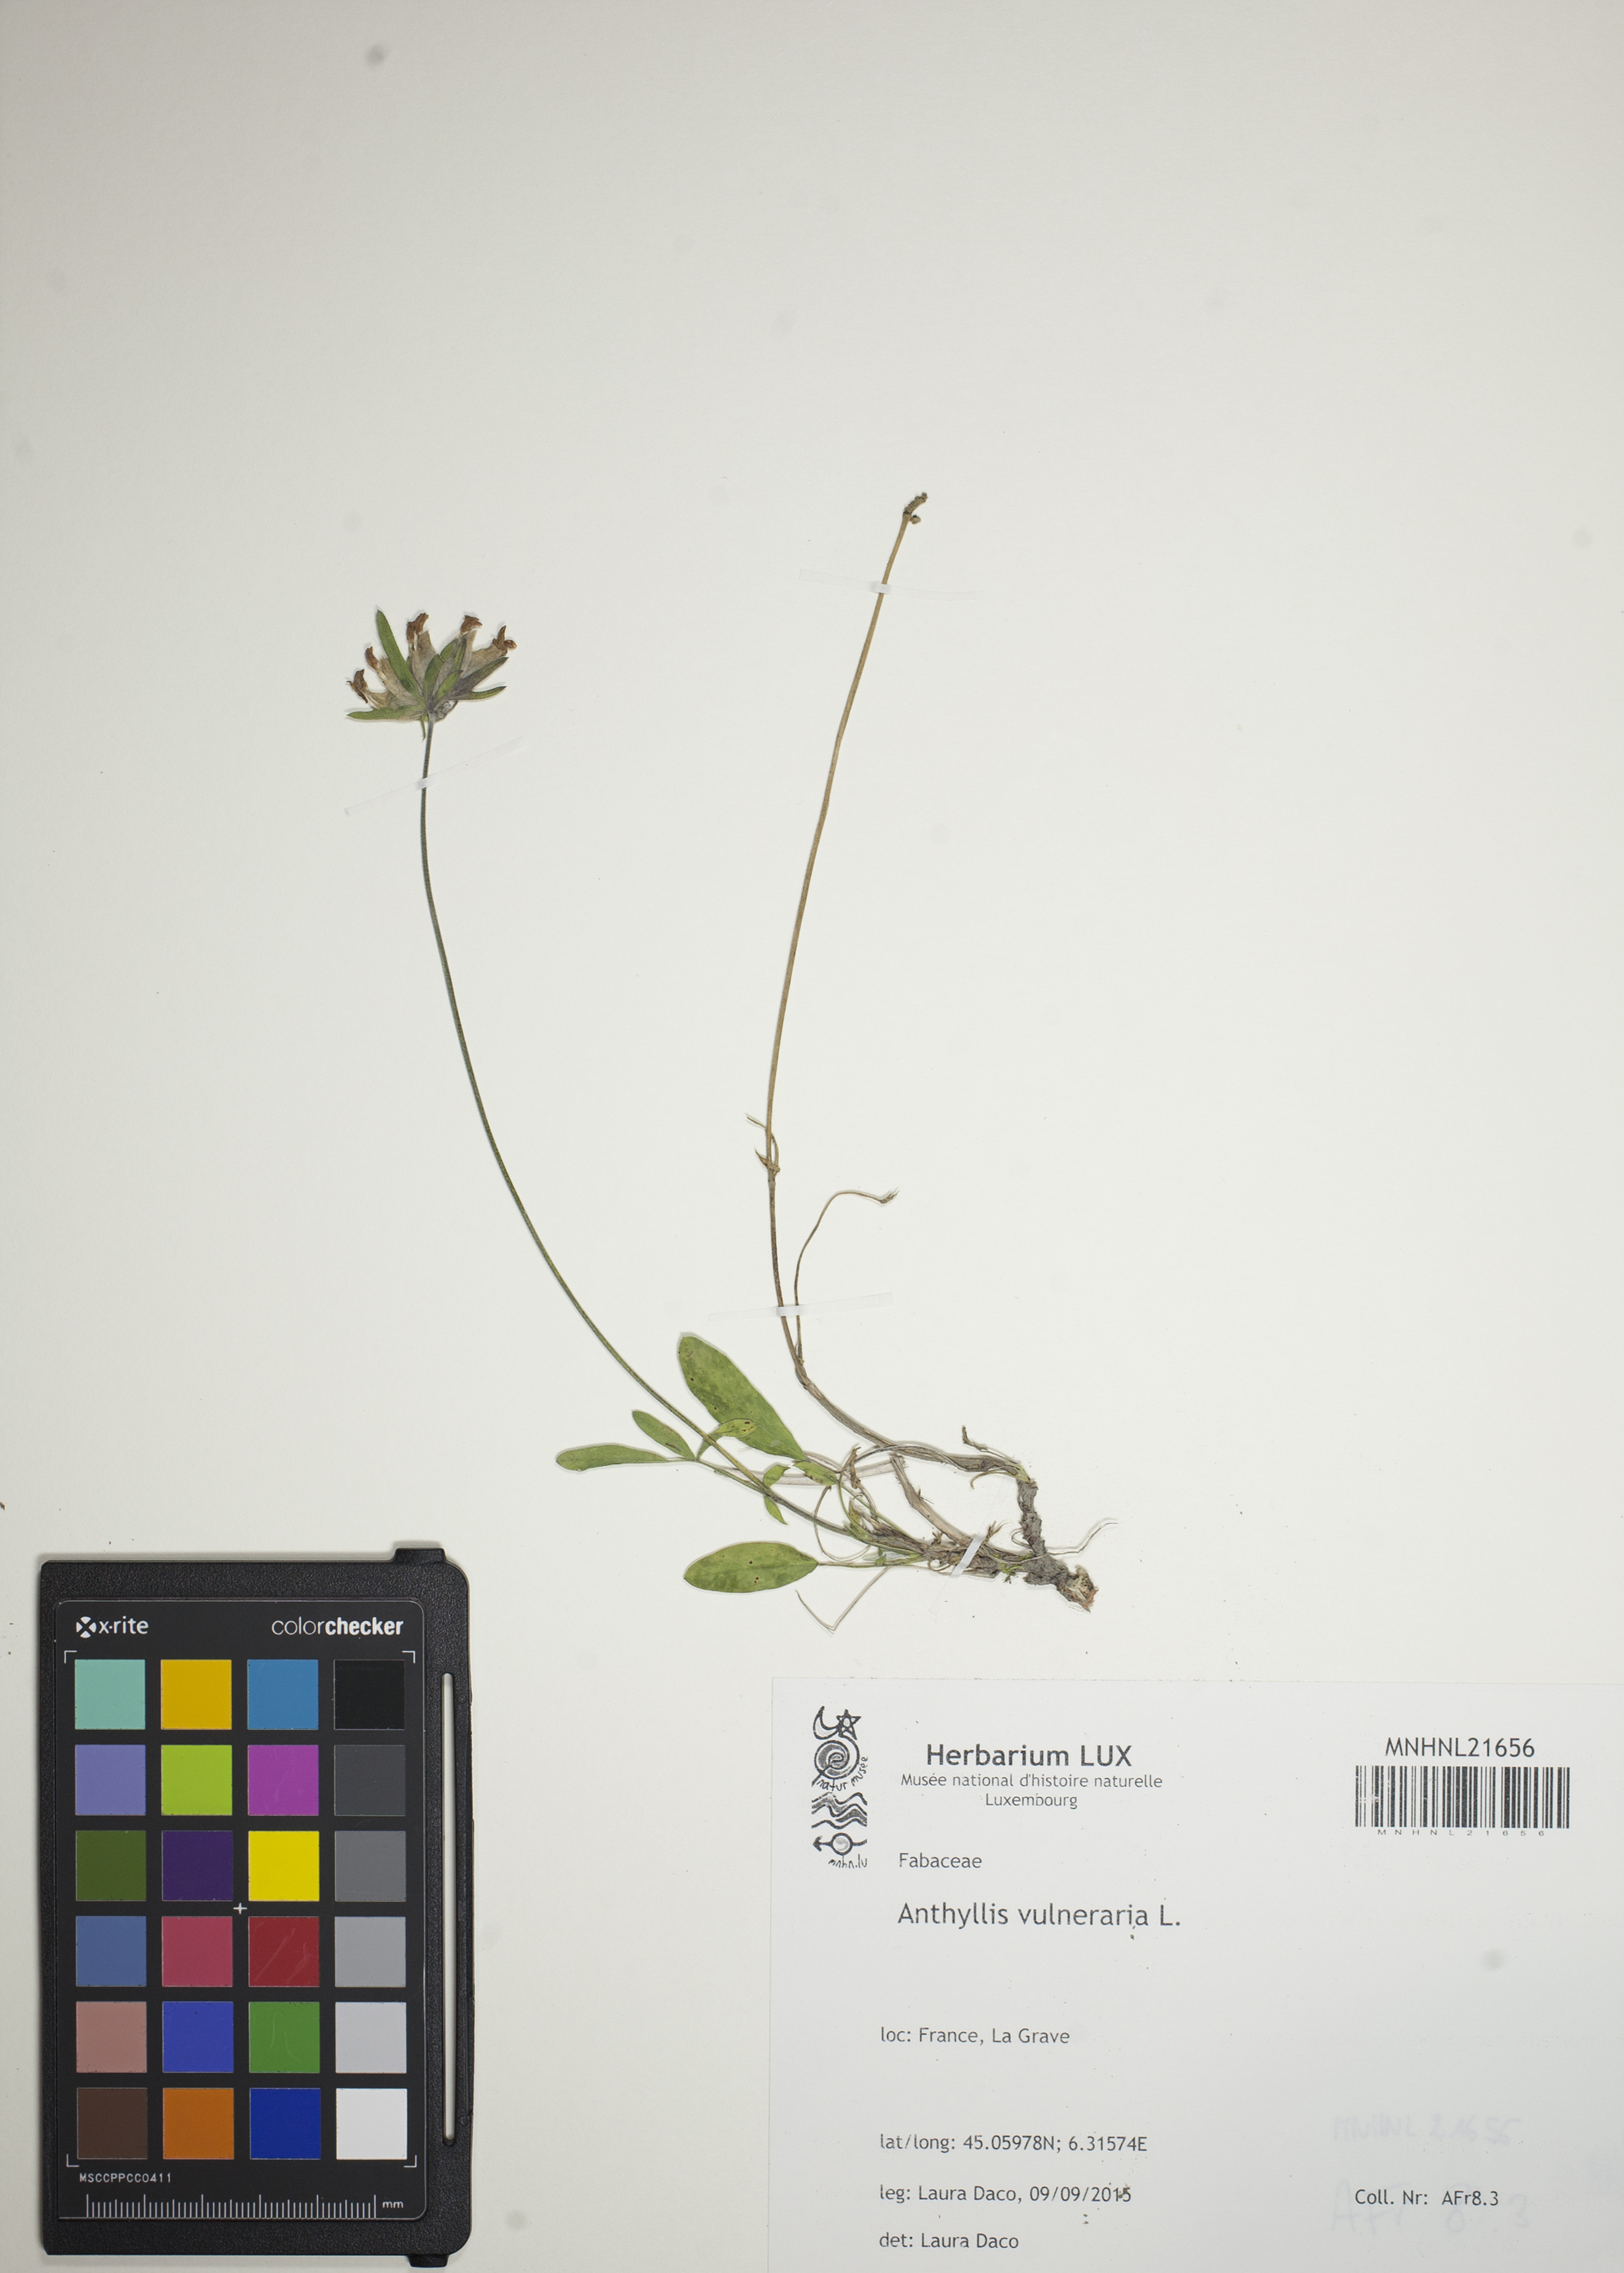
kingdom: Plantae
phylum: Tracheophyta
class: Magnoliopsida
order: Fabales
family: Fabaceae
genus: Anthyllis
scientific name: Anthyllis vulneraria
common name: Kidney vetch
